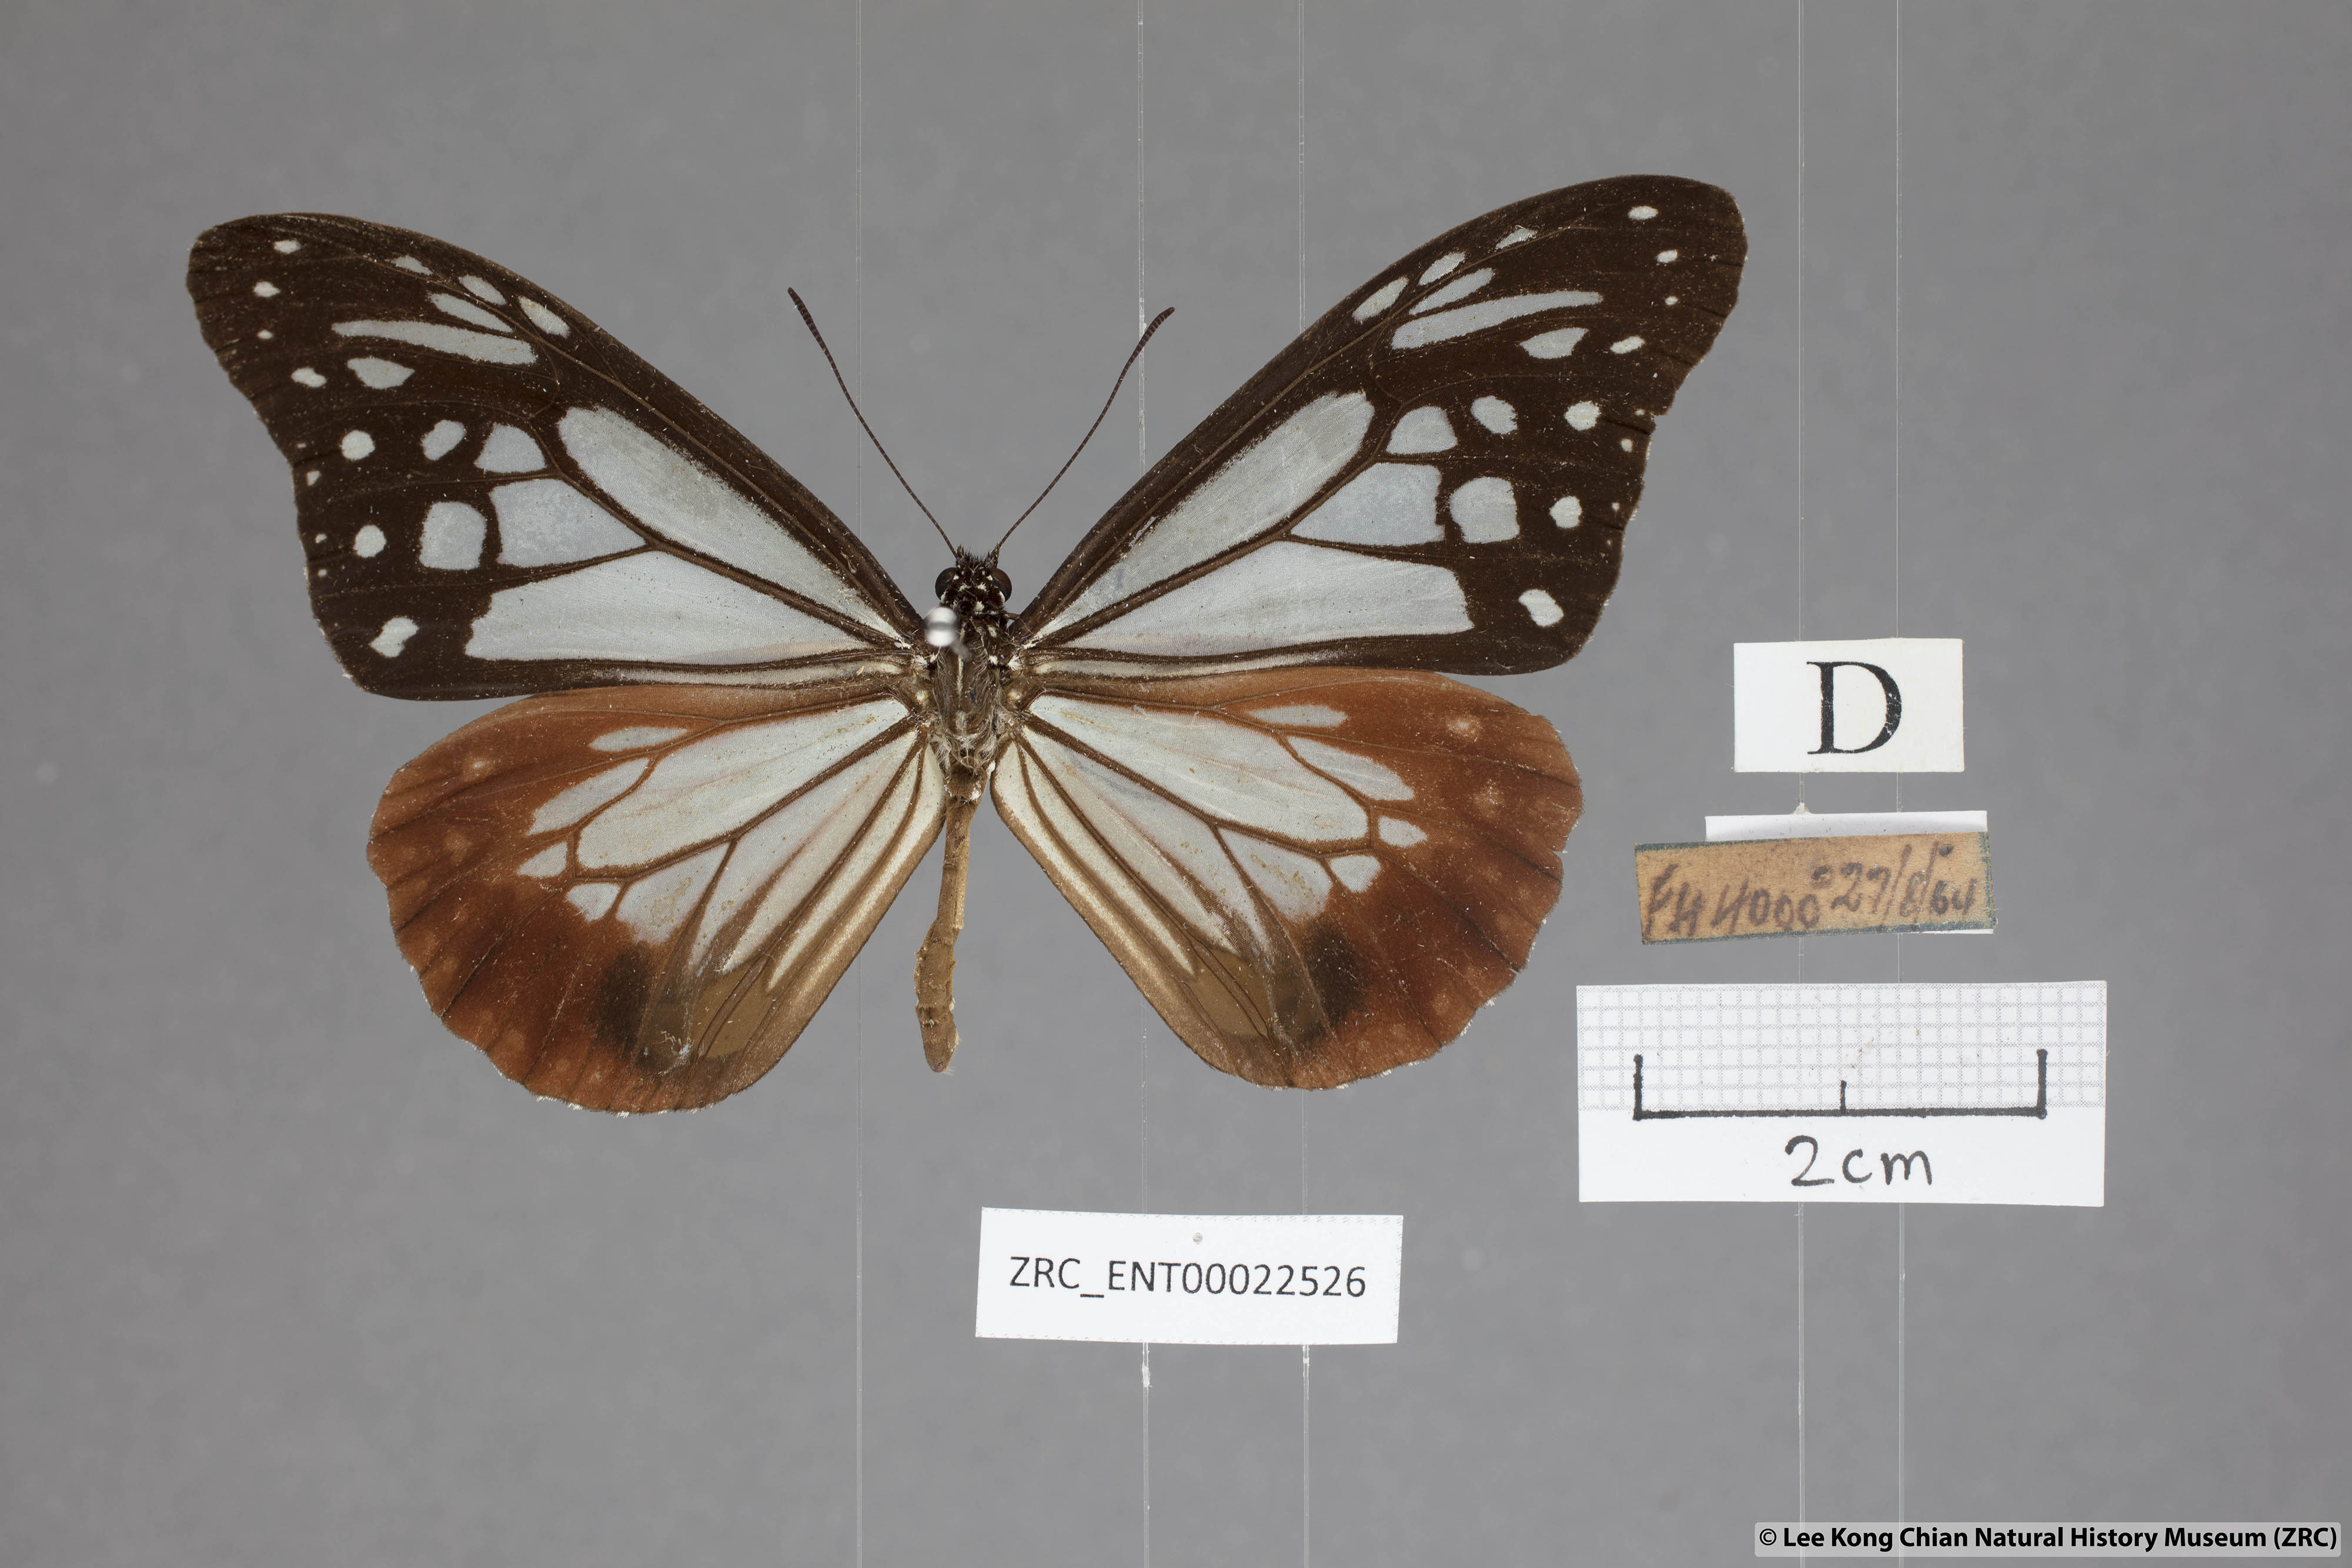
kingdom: Animalia
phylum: Arthropoda
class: Insecta
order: Lepidoptera
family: Nymphalidae
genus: Parantica
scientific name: Parantica sita
